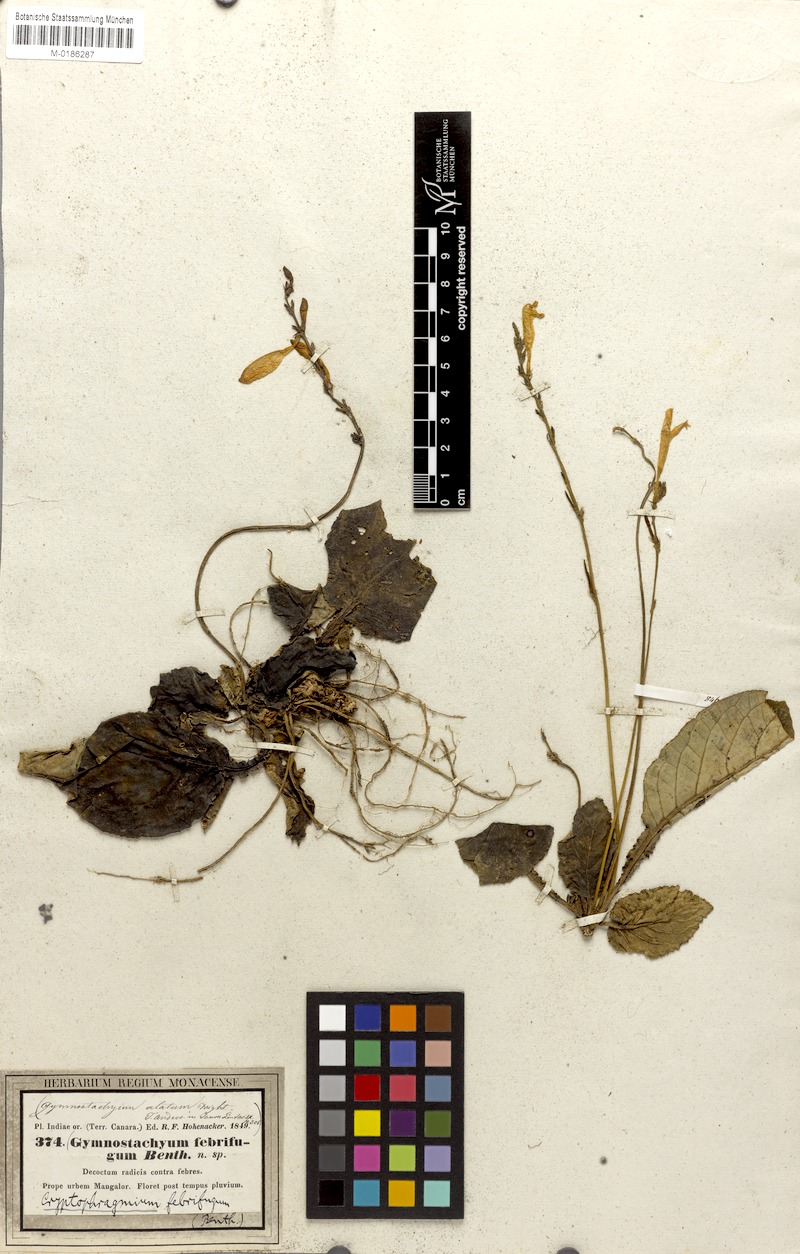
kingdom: Plantae
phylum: Tracheophyta
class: Magnoliopsida
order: Lamiales
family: Acanthaceae
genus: Gymnostachyum
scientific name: Gymnostachyum febrifugum
